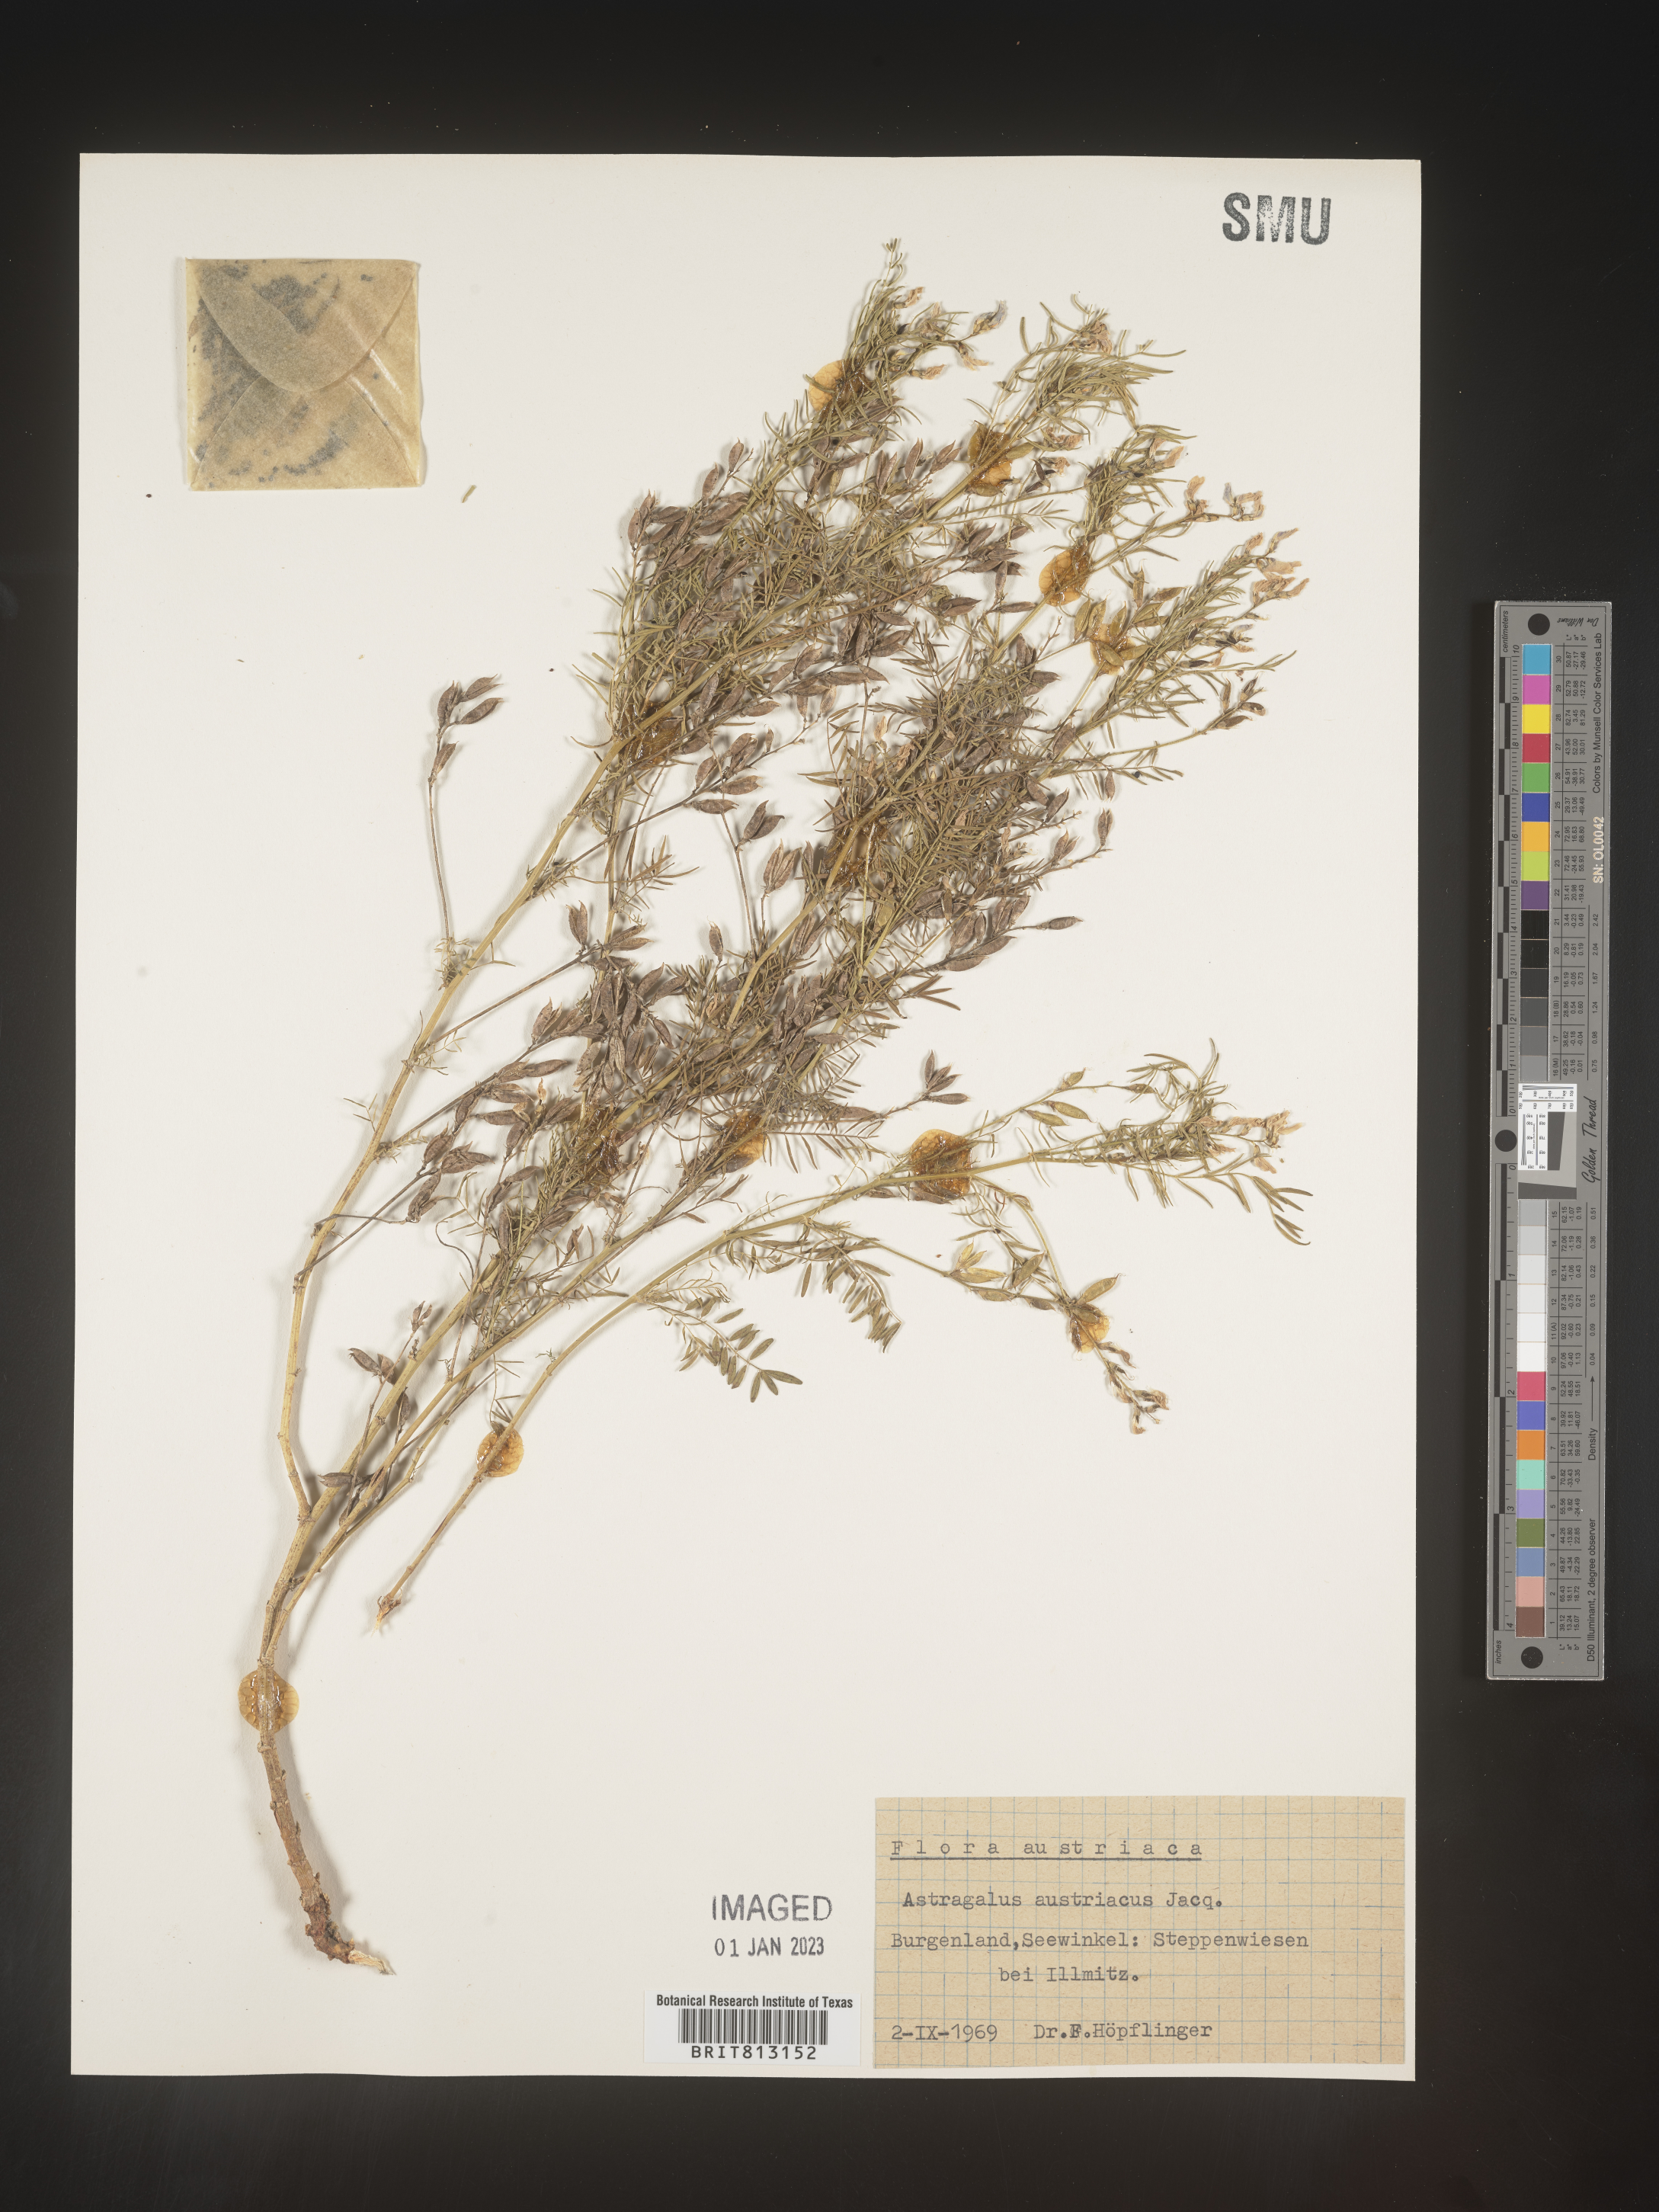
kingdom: Plantae
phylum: Tracheophyta
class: Magnoliopsida
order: Fabales
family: Fabaceae
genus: Astragalus
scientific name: Astragalus
